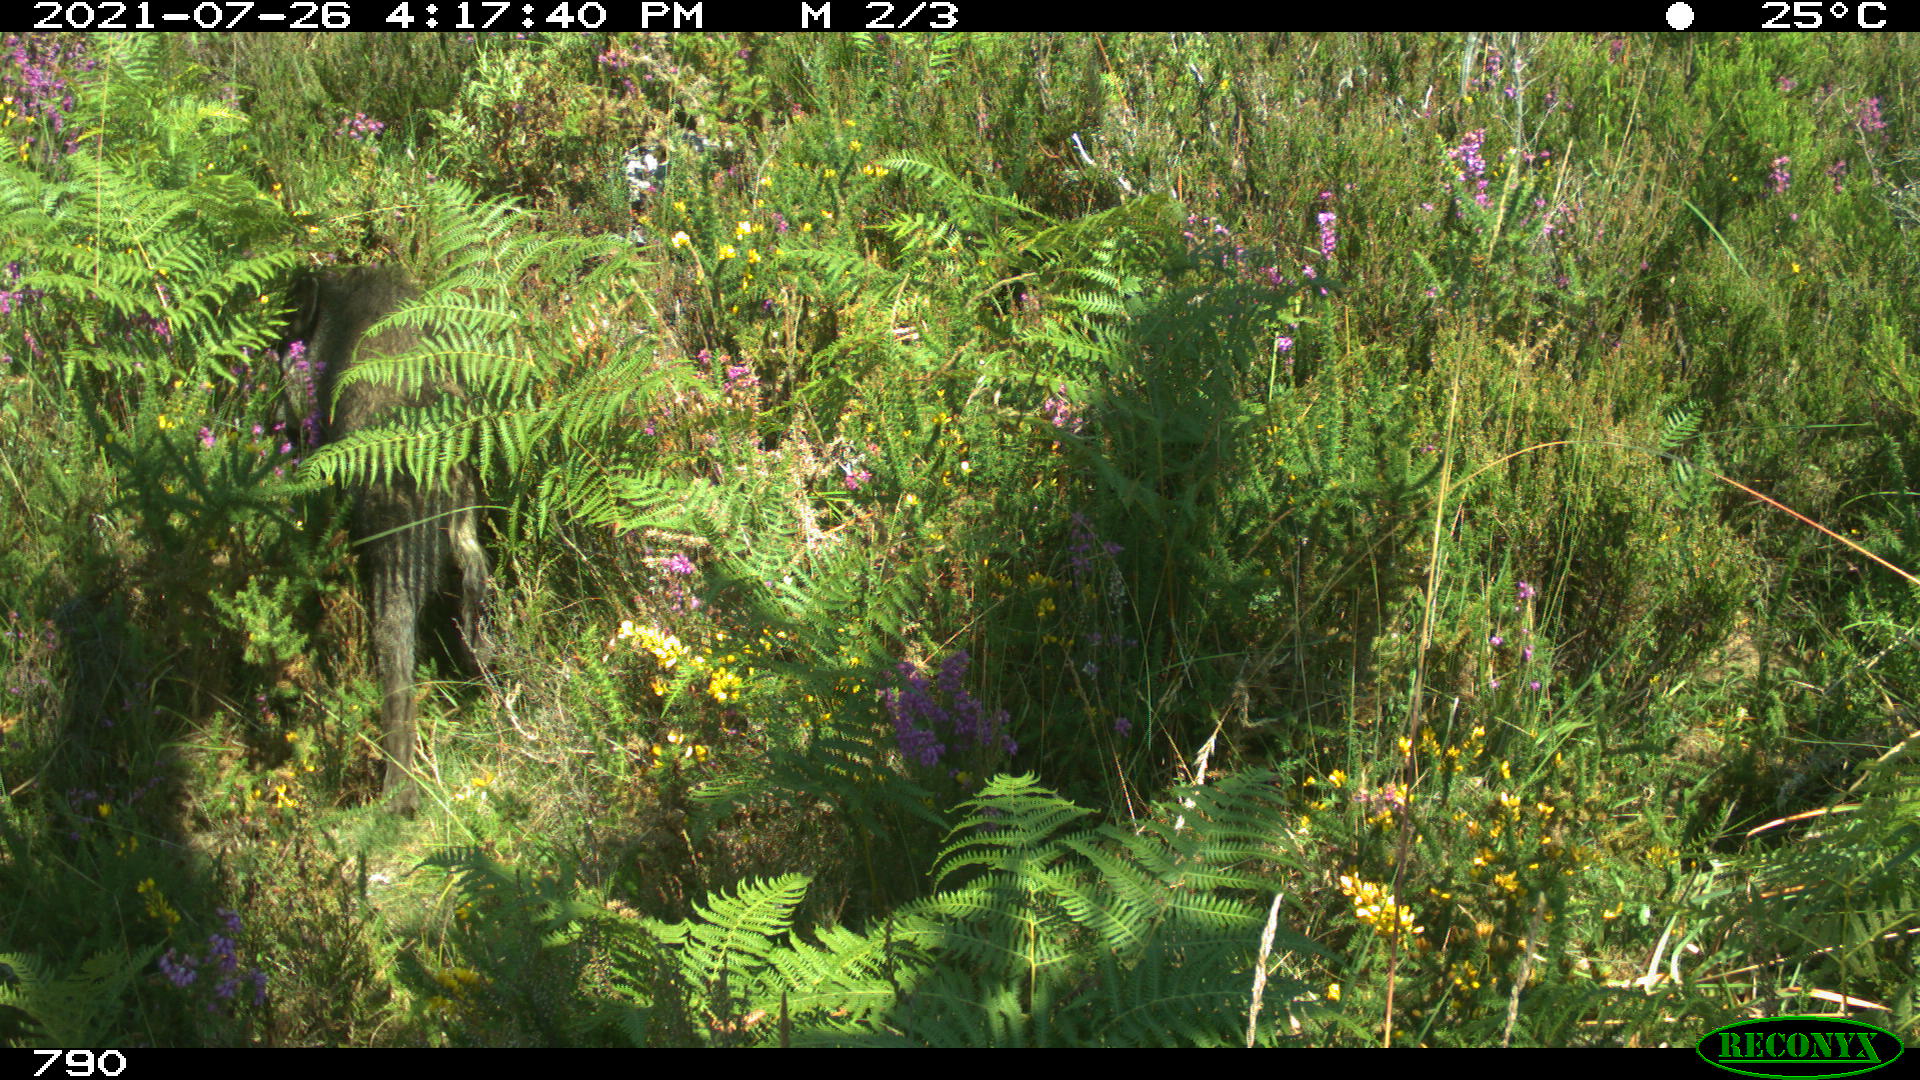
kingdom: Animalia
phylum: Chordata
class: Mammalia
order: Artiodactyla
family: Suidae
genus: Sus
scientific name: Sus scrofa
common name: Wild boar
